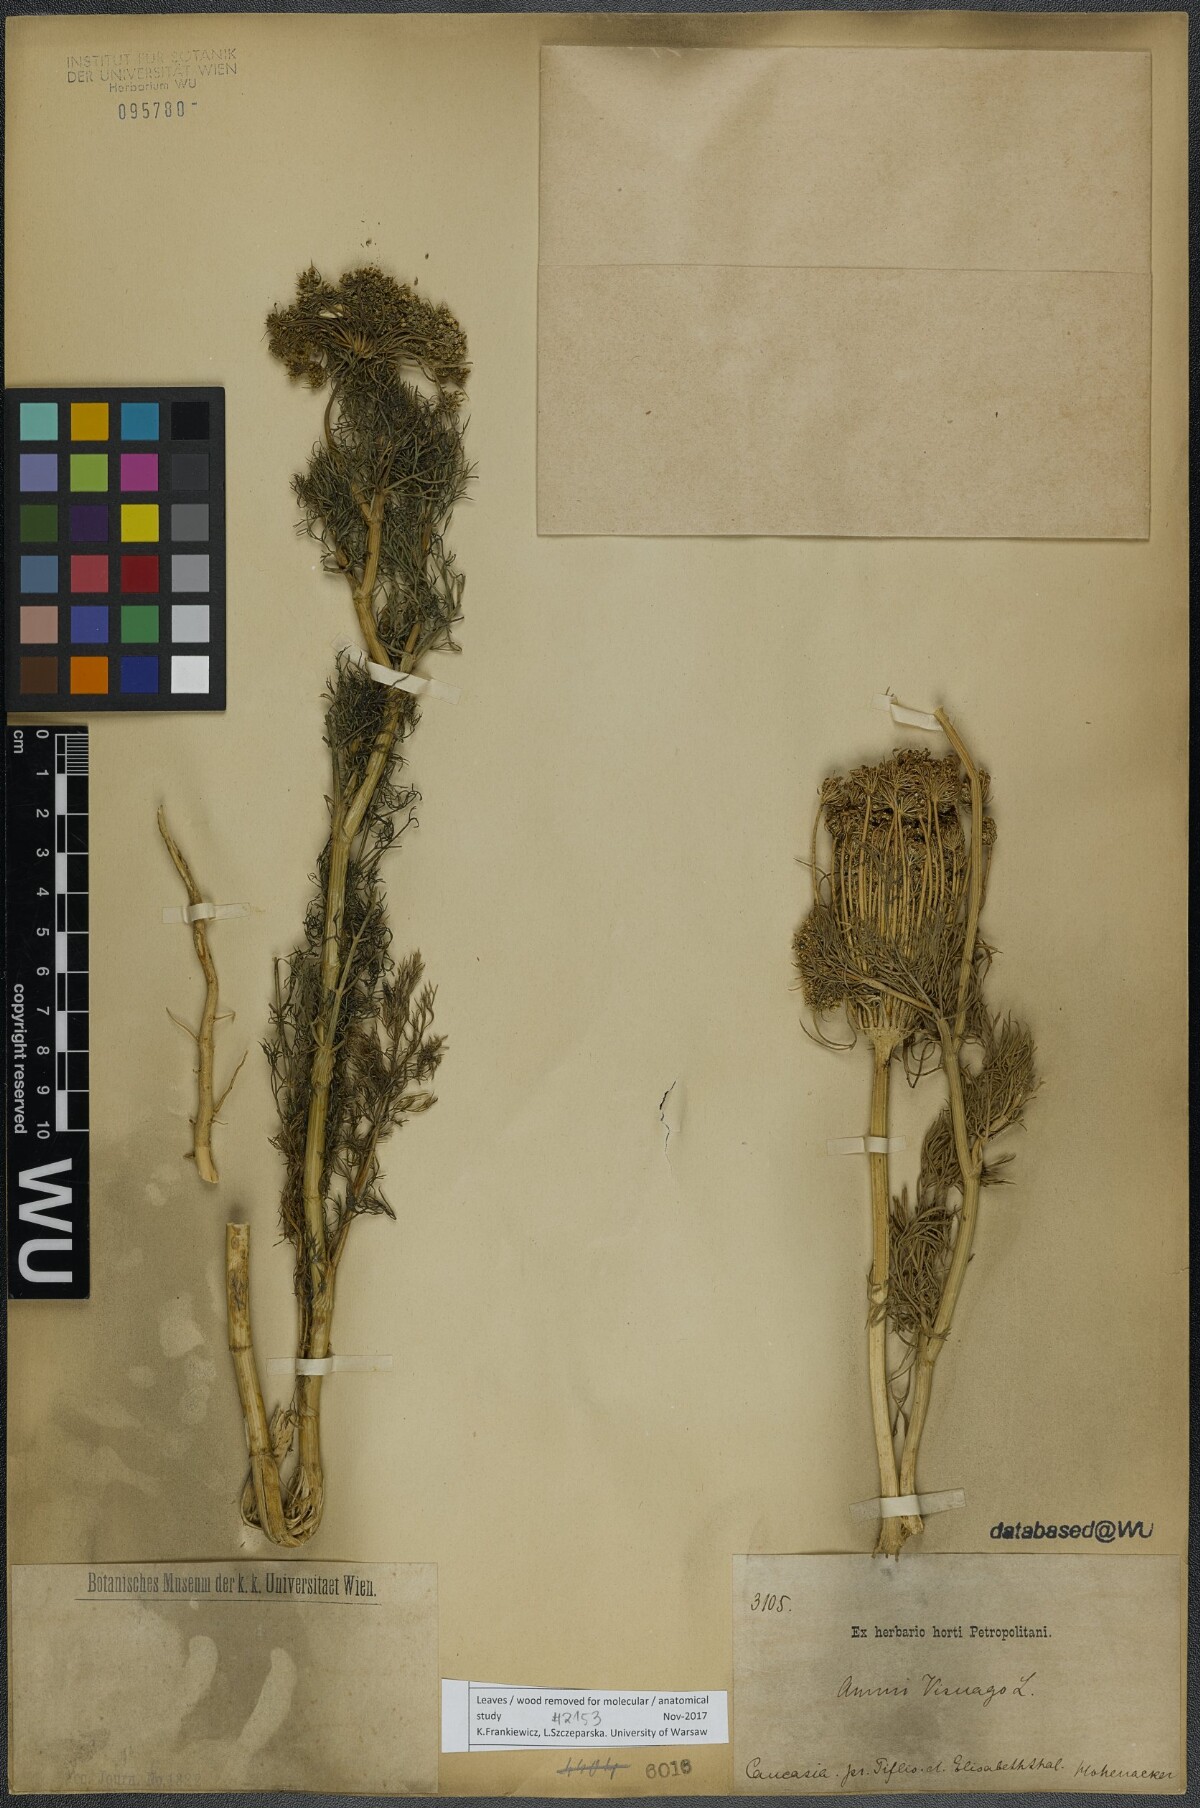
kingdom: Plantae
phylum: Tracheophyta
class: Magnoliopsida
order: Apiales
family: Apiaceae
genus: Visnaga
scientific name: Visnaga daucoides
